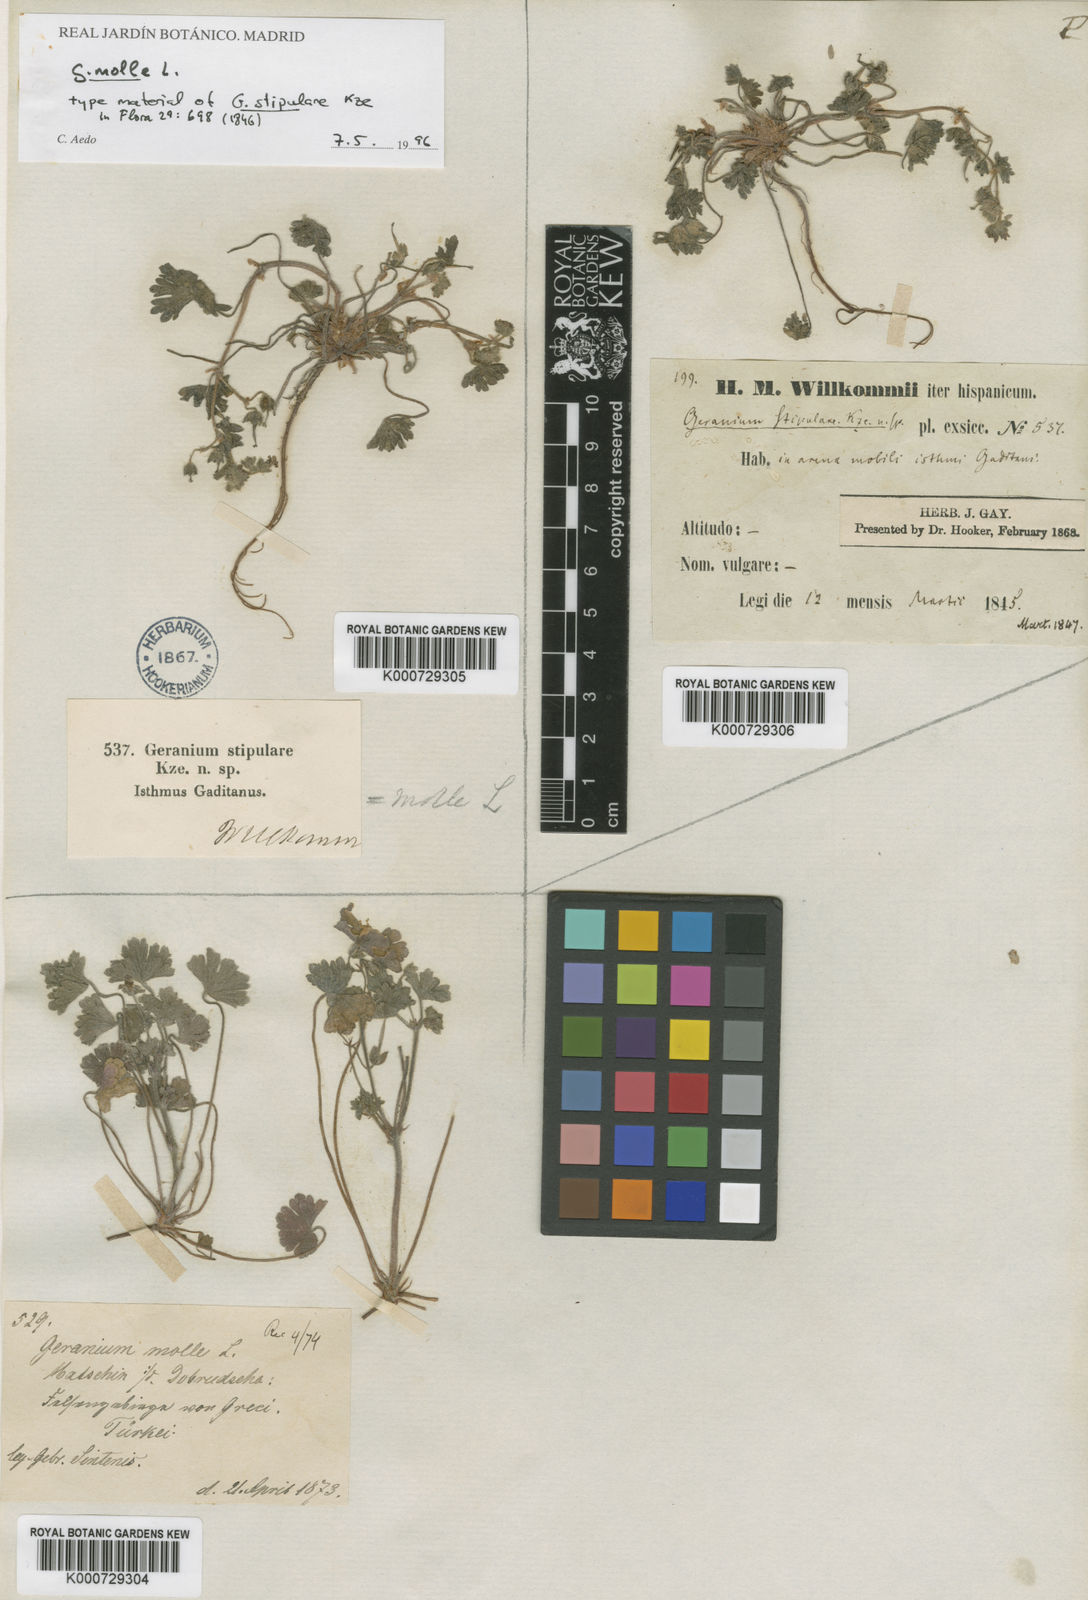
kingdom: Plantae
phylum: Tracheophyta
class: Magnoliopsida
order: Geraniales
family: Geraniaceae
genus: Geranium
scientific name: Geranium molle
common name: Dove's-foot crane's-bill
